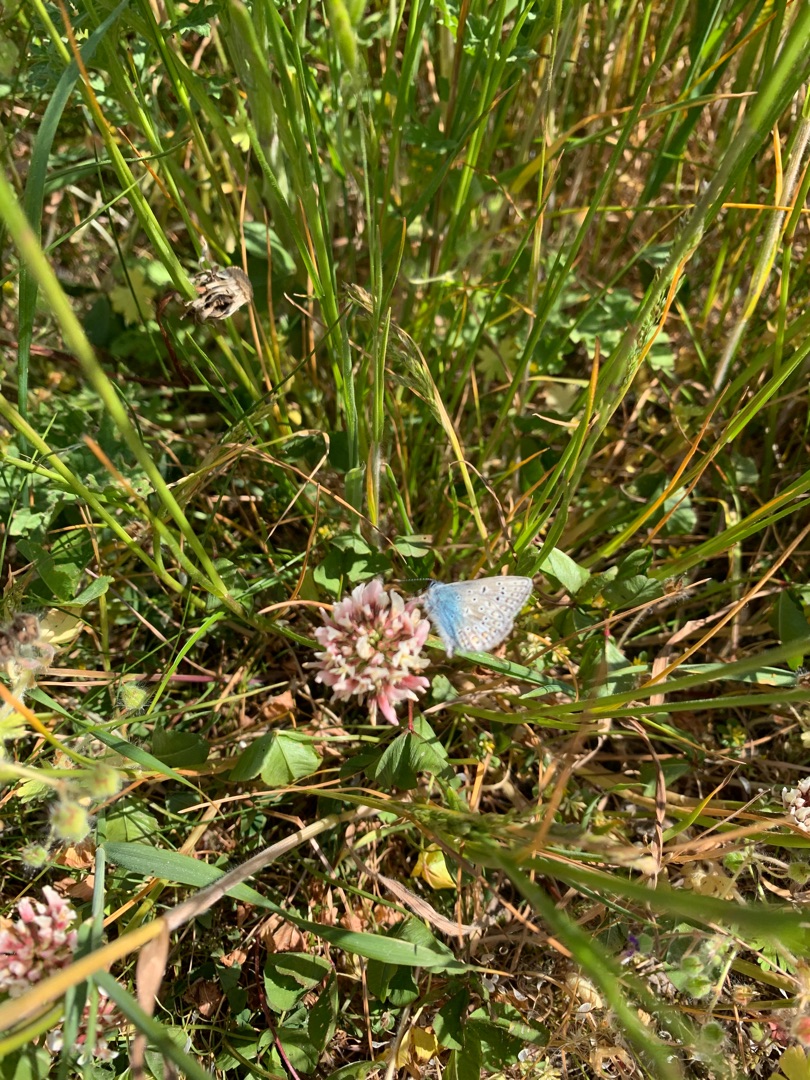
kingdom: Animalia
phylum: Arthropoda
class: Insecta
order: Lepidoptera
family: Lycaenidae
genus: Polyommatus
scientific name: Polyommatus icarus
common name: Almindelig blåfugl
